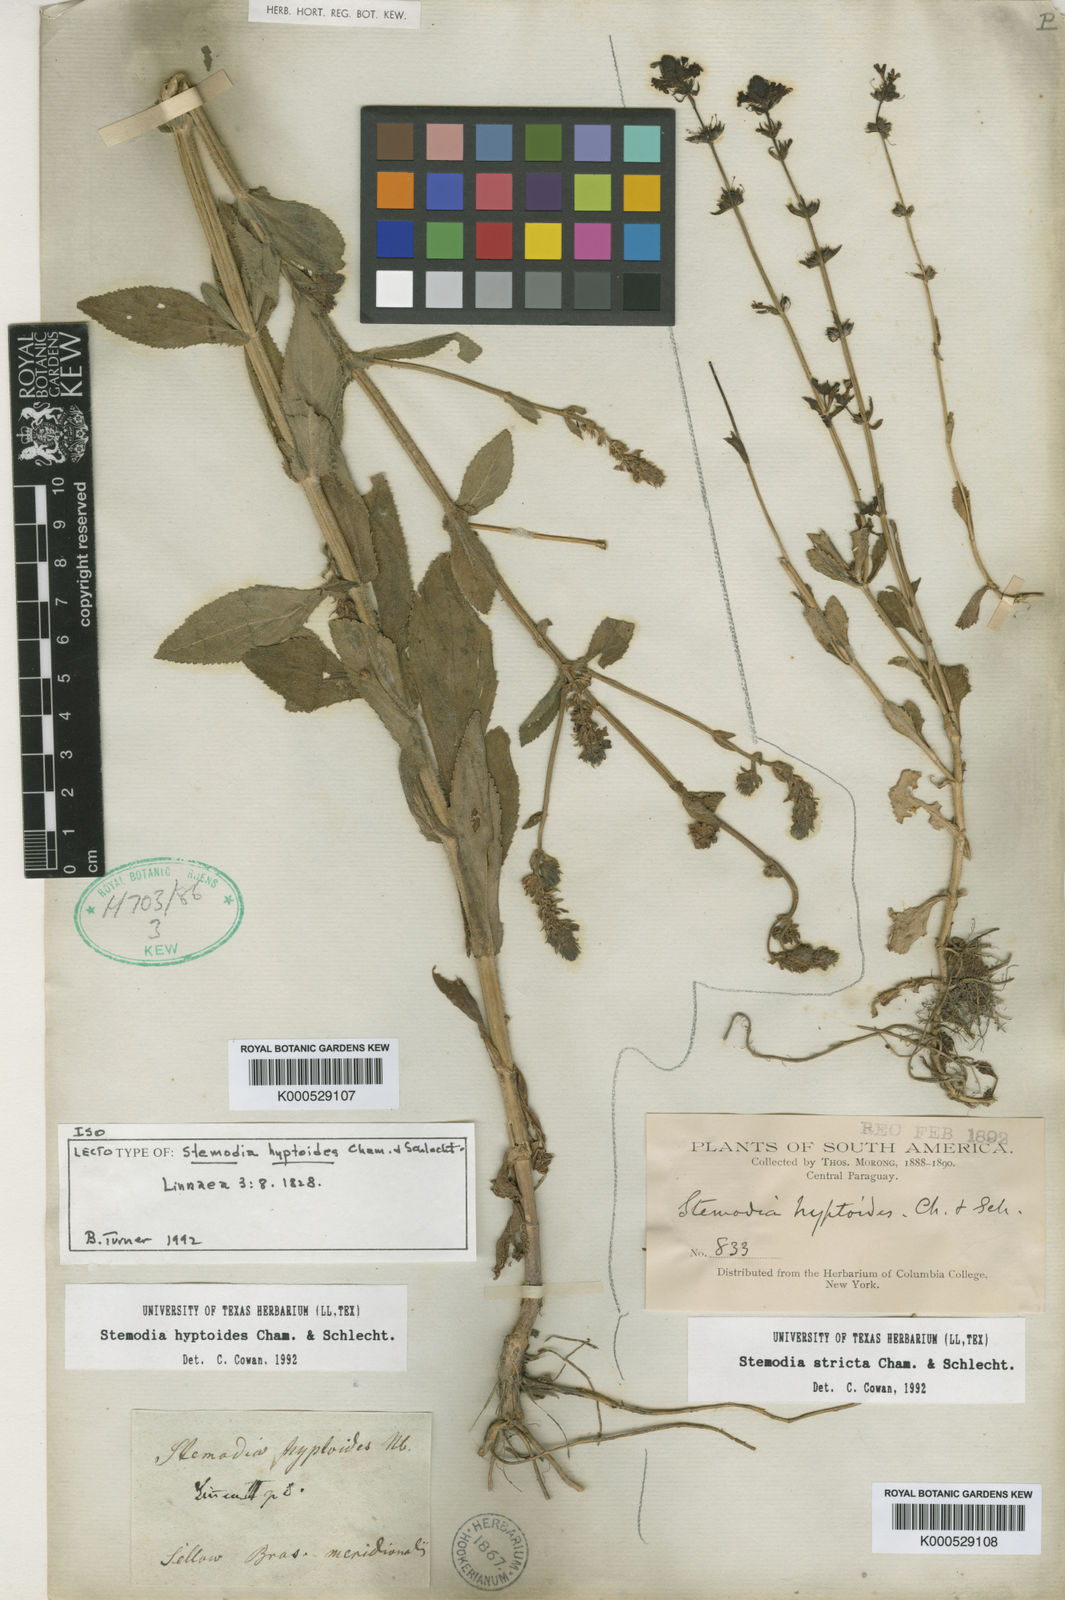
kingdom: Plantae
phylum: Tracheophyta
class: Magnoliopsida
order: Lamiales
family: Plantaginaceae
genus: Stemodia
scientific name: Stemodia hyptoides
